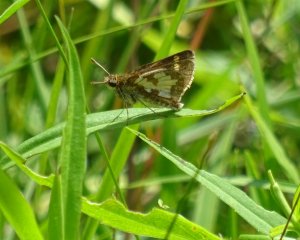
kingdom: Animalia
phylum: Arthropoda
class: Insecta
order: Lepidoptera
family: Hesperiidae
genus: Polites
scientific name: Polites coras
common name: Peck's Skipper
